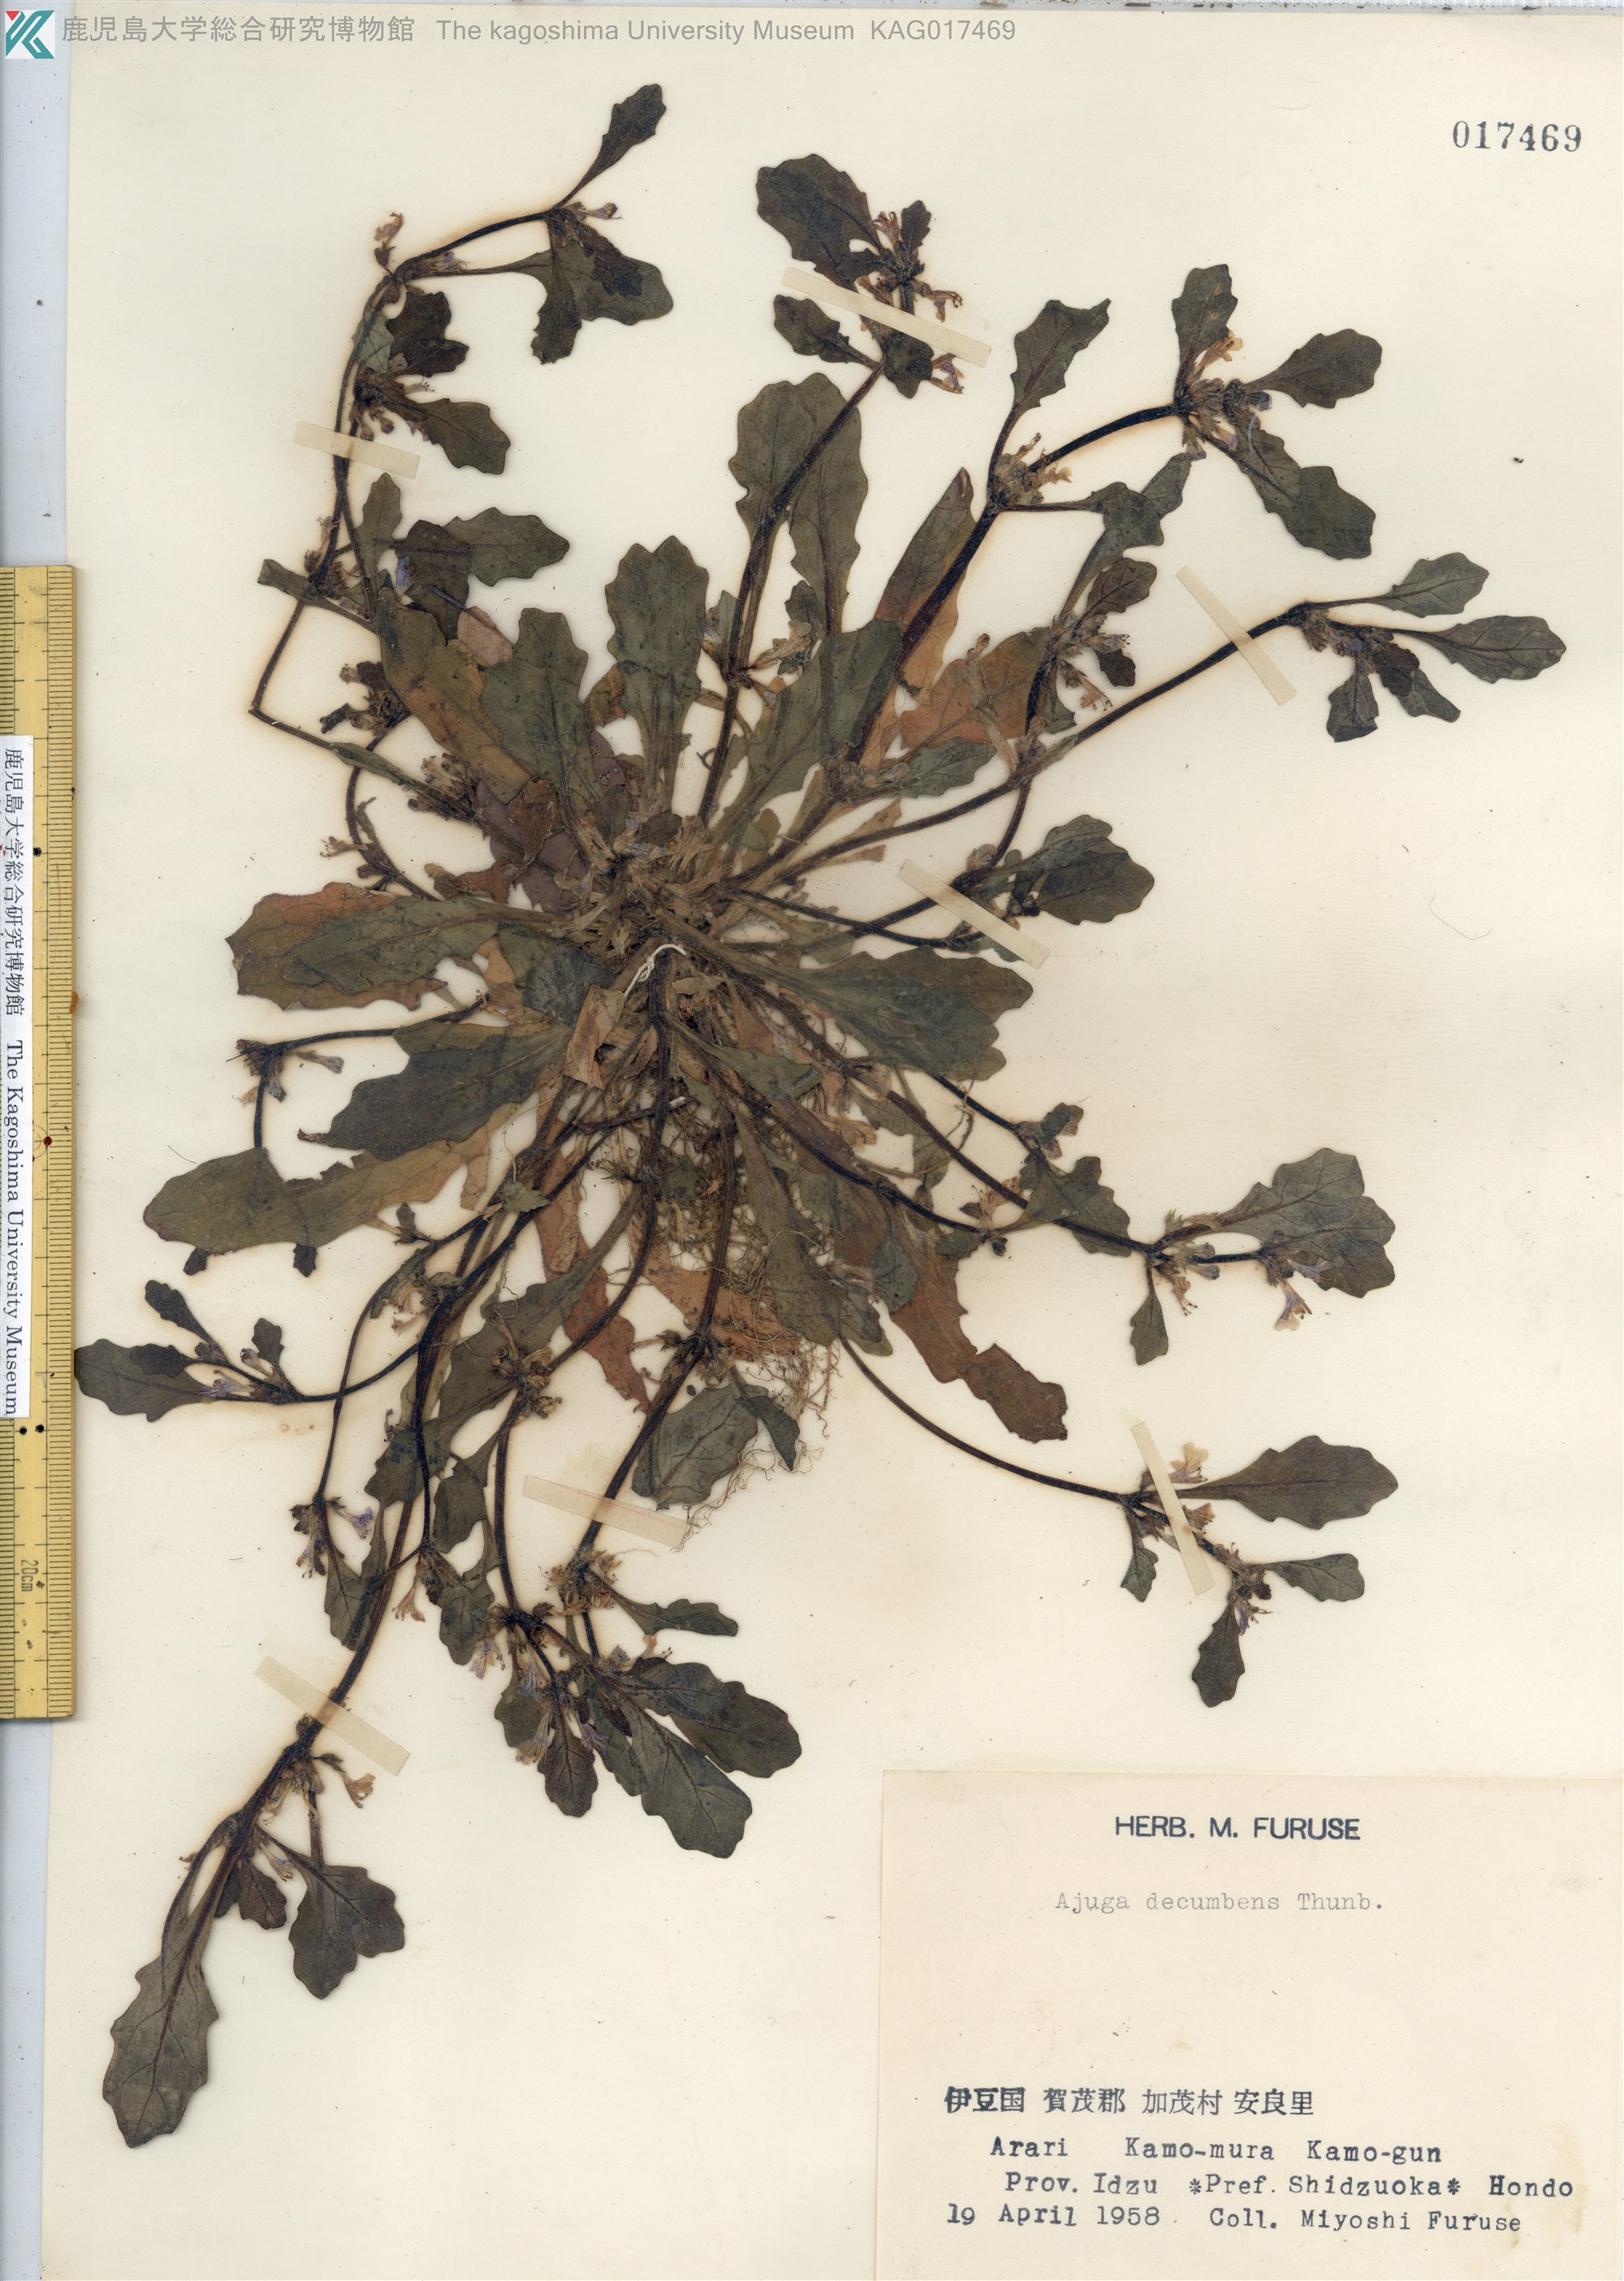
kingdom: Plantae
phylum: Tracheophyta
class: Magnoliopsida
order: Lamiales
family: Lamiaceae
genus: Ajuga
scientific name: Ajuga decumbens
